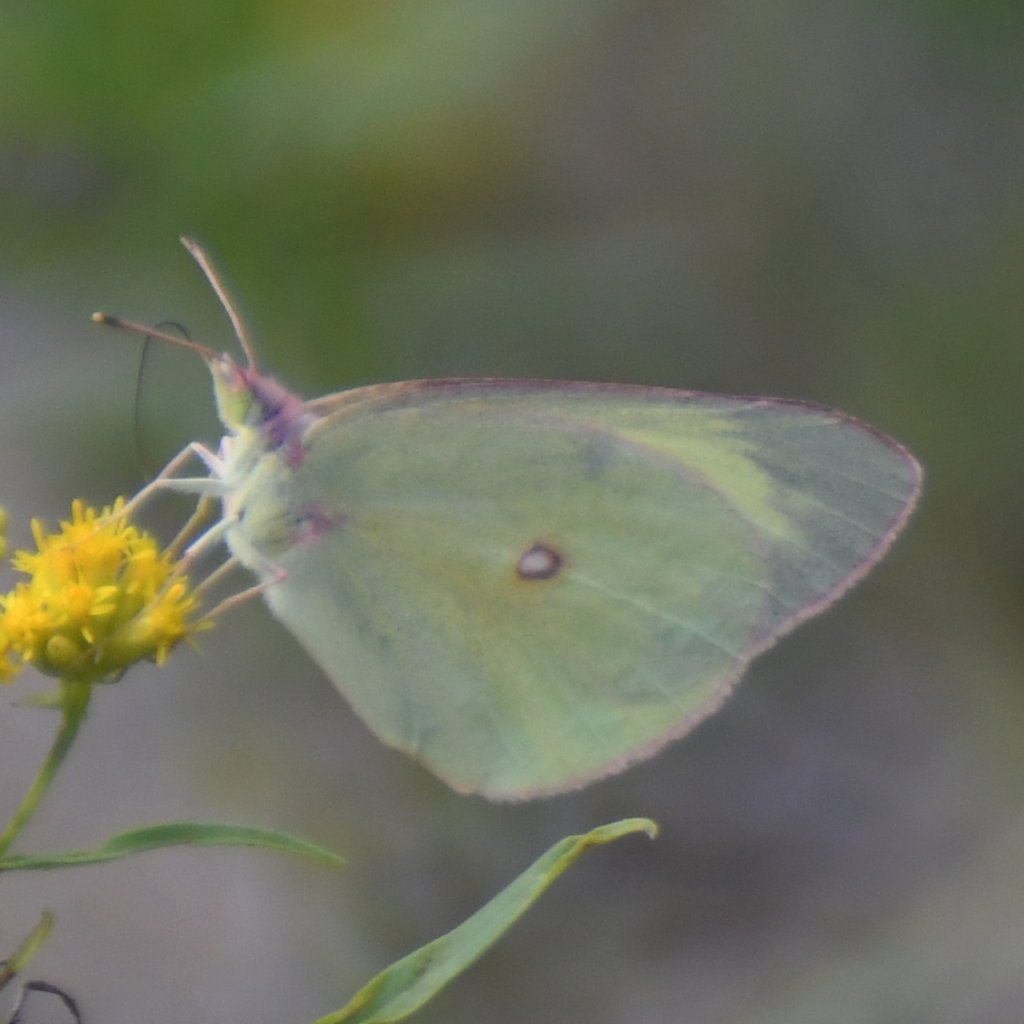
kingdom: Animalia
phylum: Arthropoda
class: Insecta
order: Lepidoptera
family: Pieridae
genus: Colias
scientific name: Colias interior
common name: Pink-edged Sulphur
